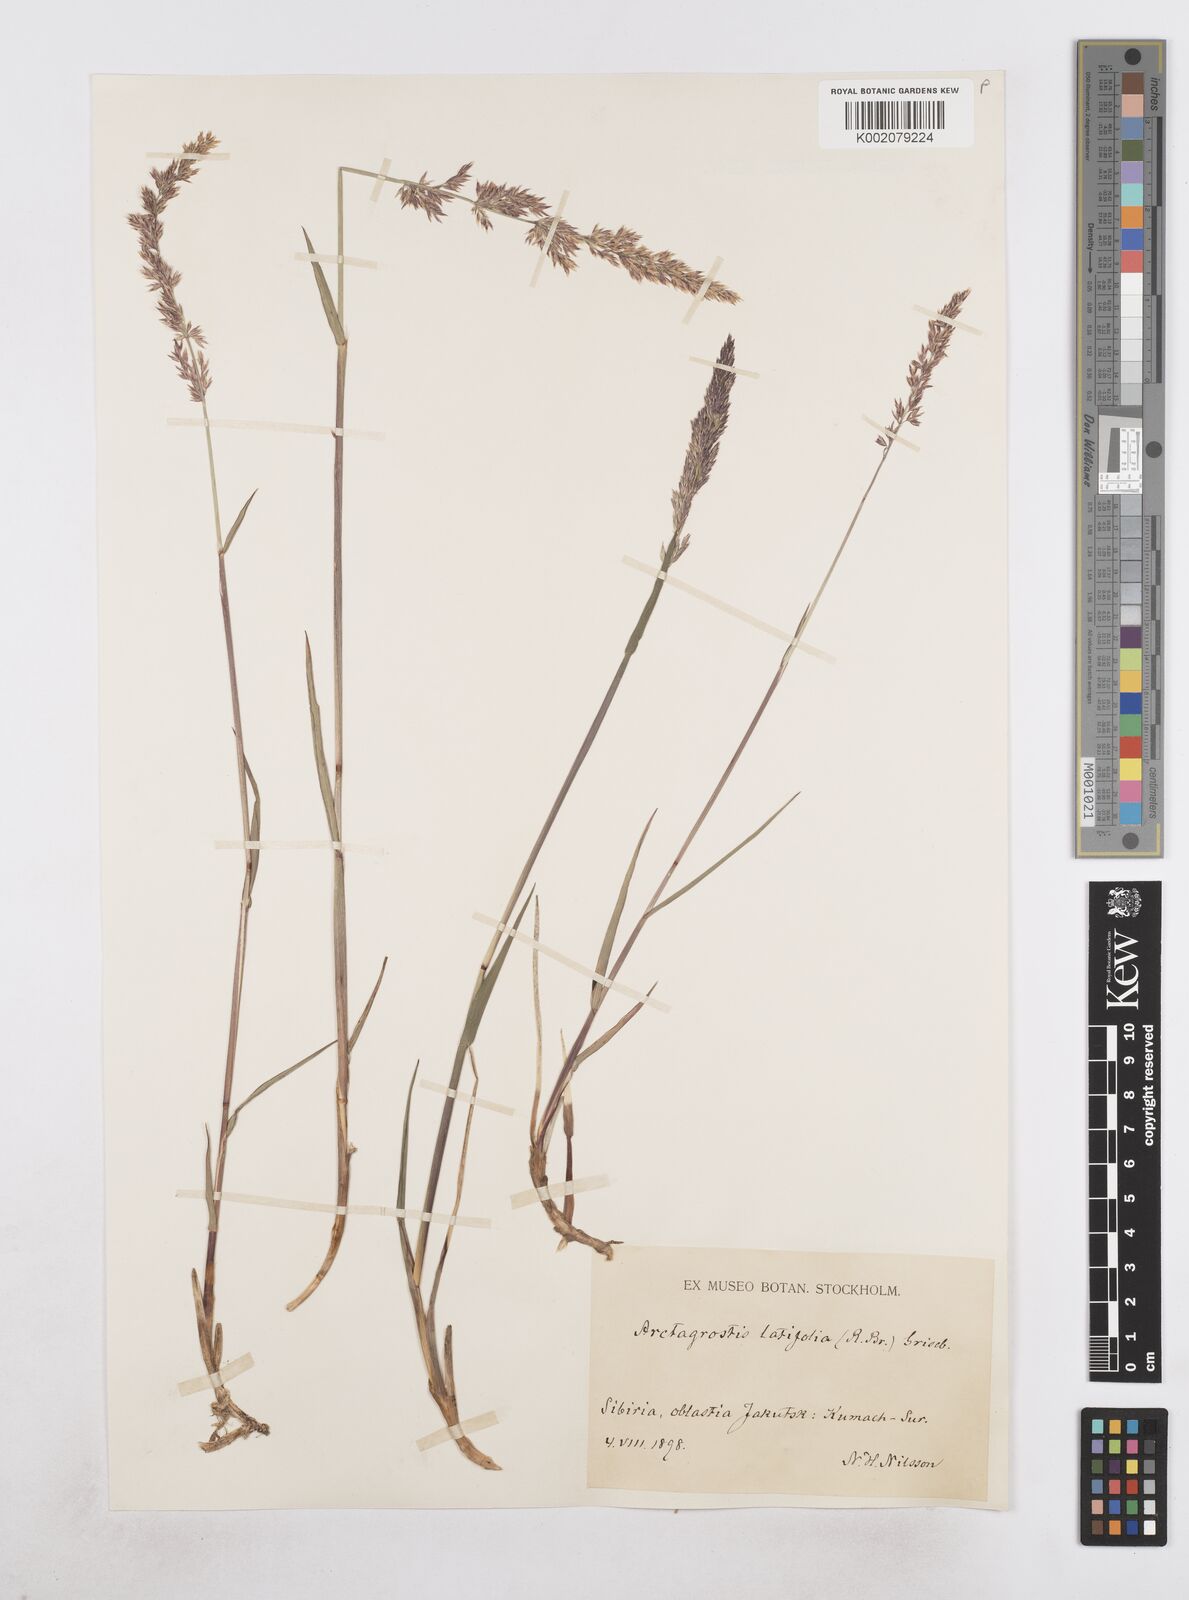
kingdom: Plantae
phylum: Tracheophyta
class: Liliopsida
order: Poales
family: Poaceae
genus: Arctagrostis
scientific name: Arctagrostis latifolia
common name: Arctic grass
